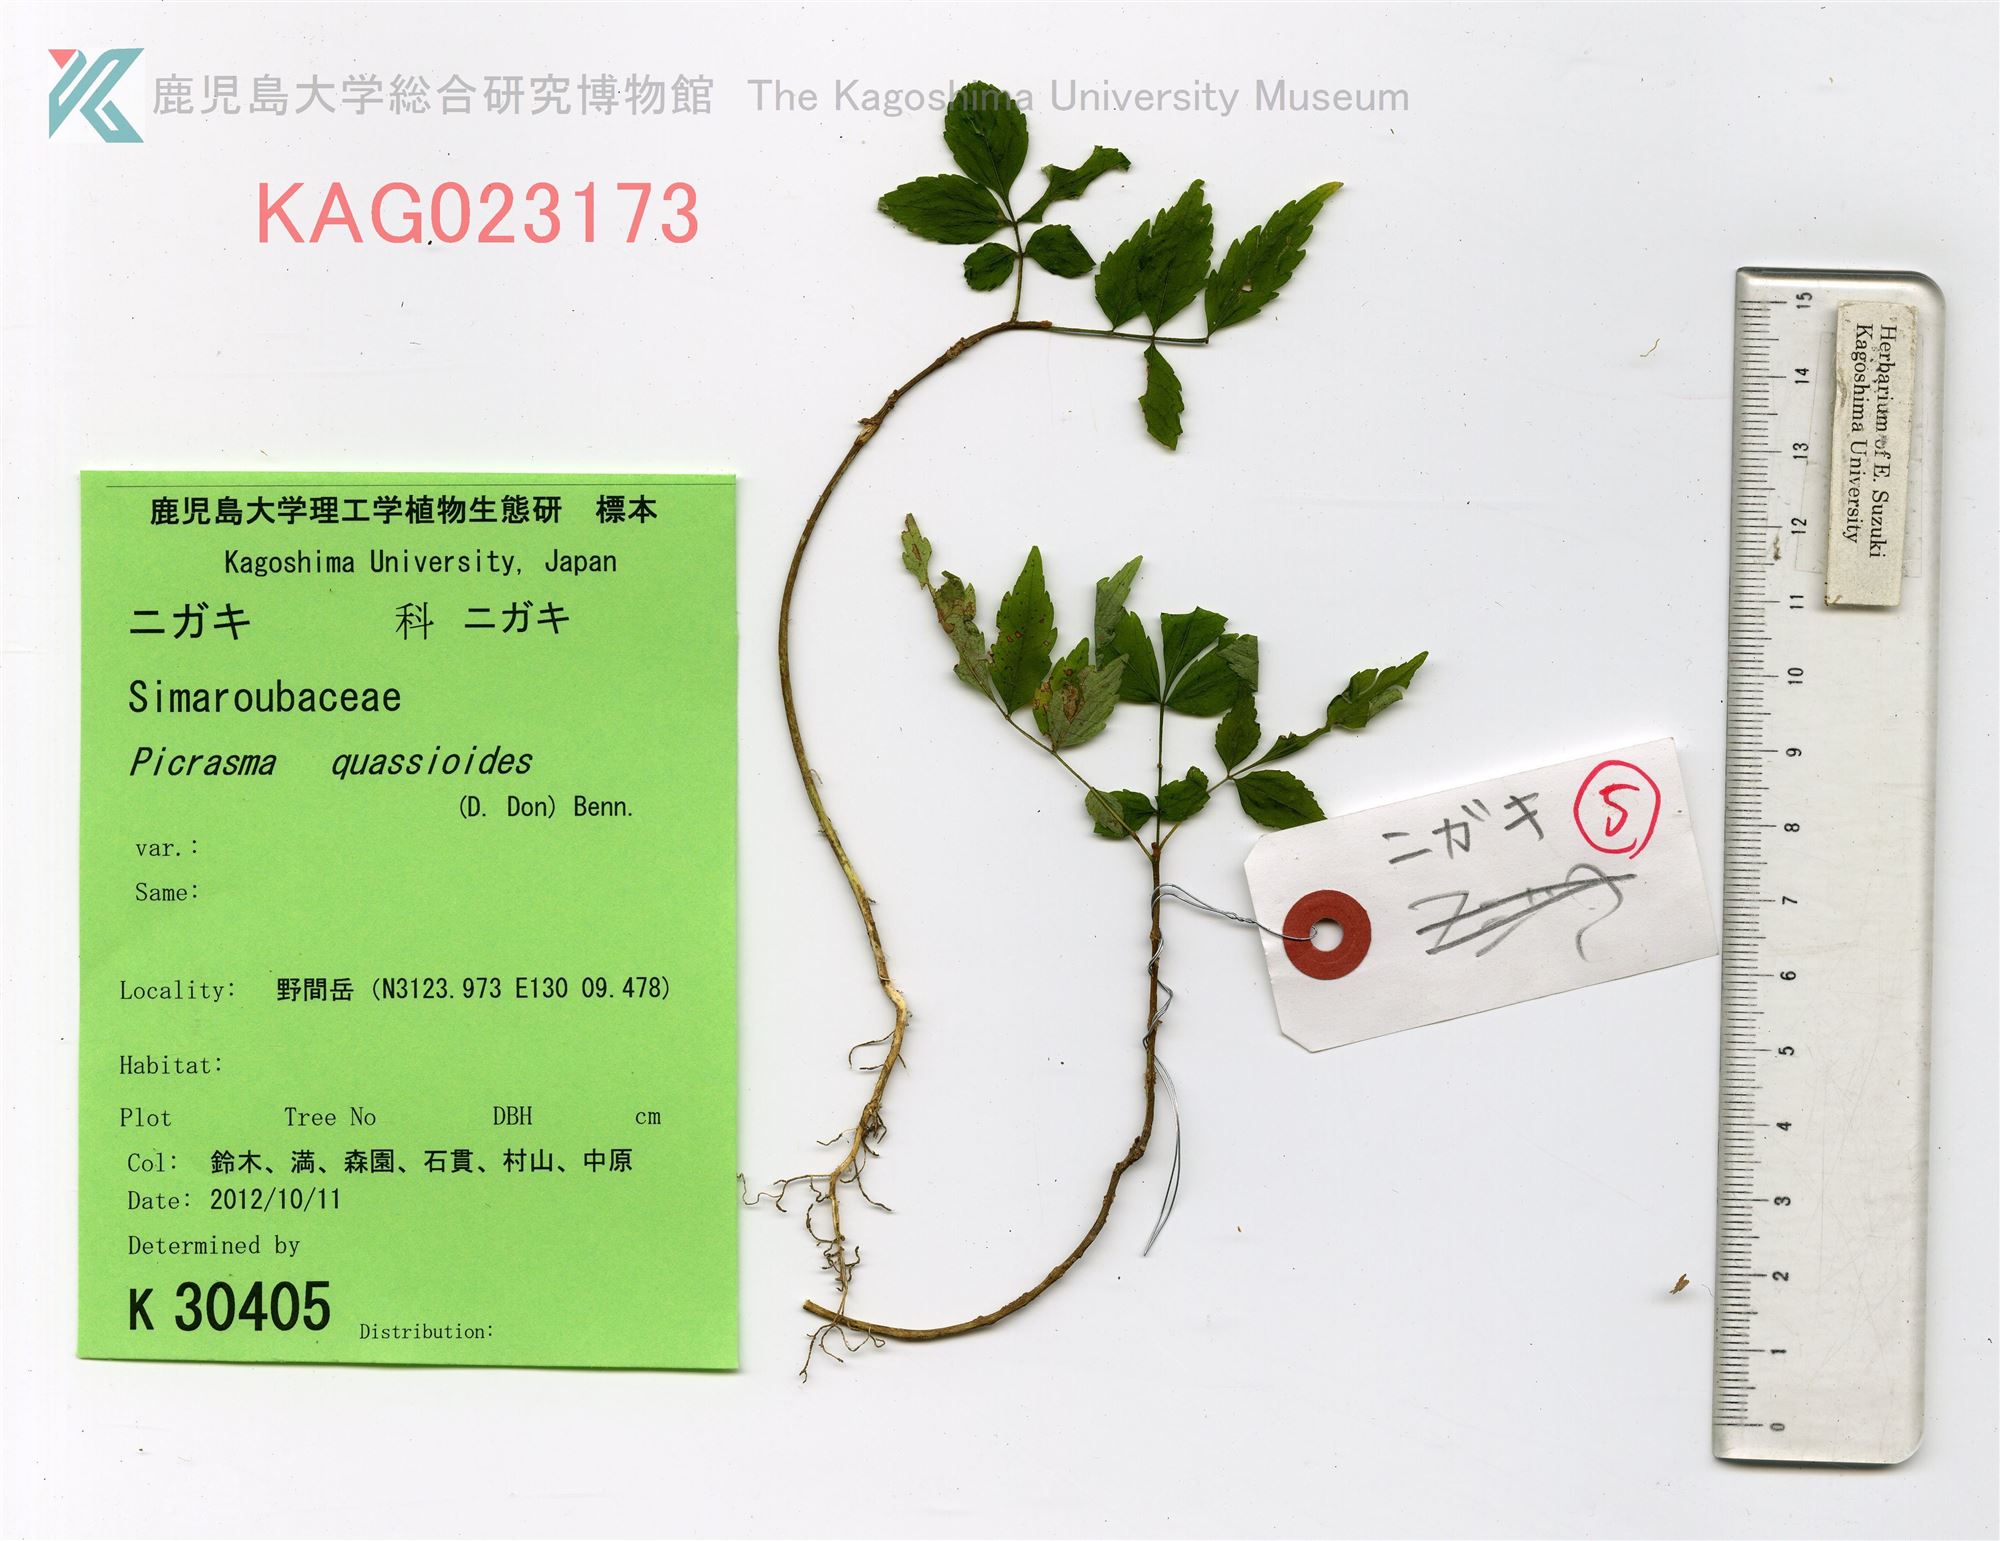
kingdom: Plantae
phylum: Tracheophyta
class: Magnoliopsida
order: Sapindales
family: Simaroubaceae
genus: Picrasma
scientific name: Picrasma quassioides
